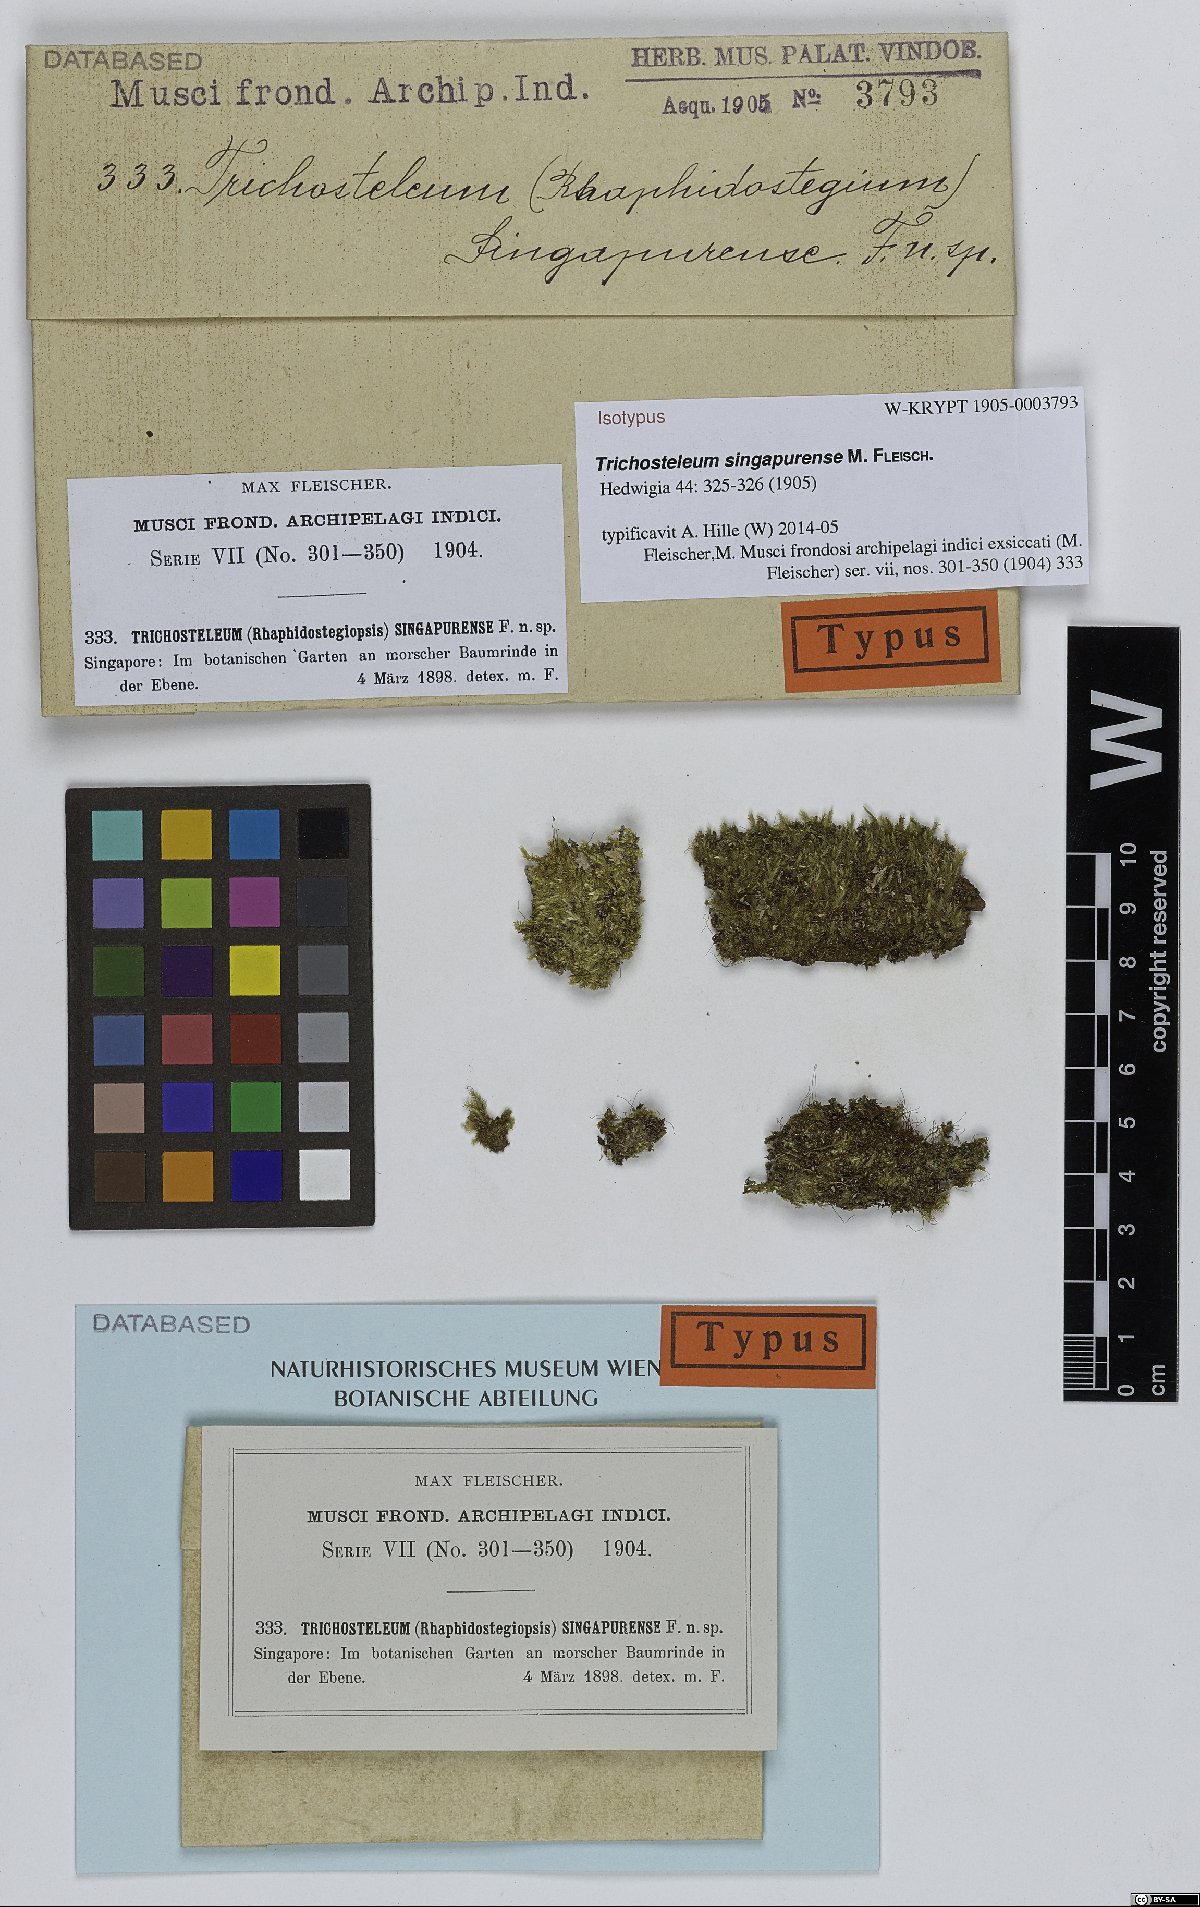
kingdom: Plantae
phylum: Bryophyta
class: Bryopsida
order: Hypnales
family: Sematophyllaceae
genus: Trichosteleum
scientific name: Trichosteleum stigmosum
